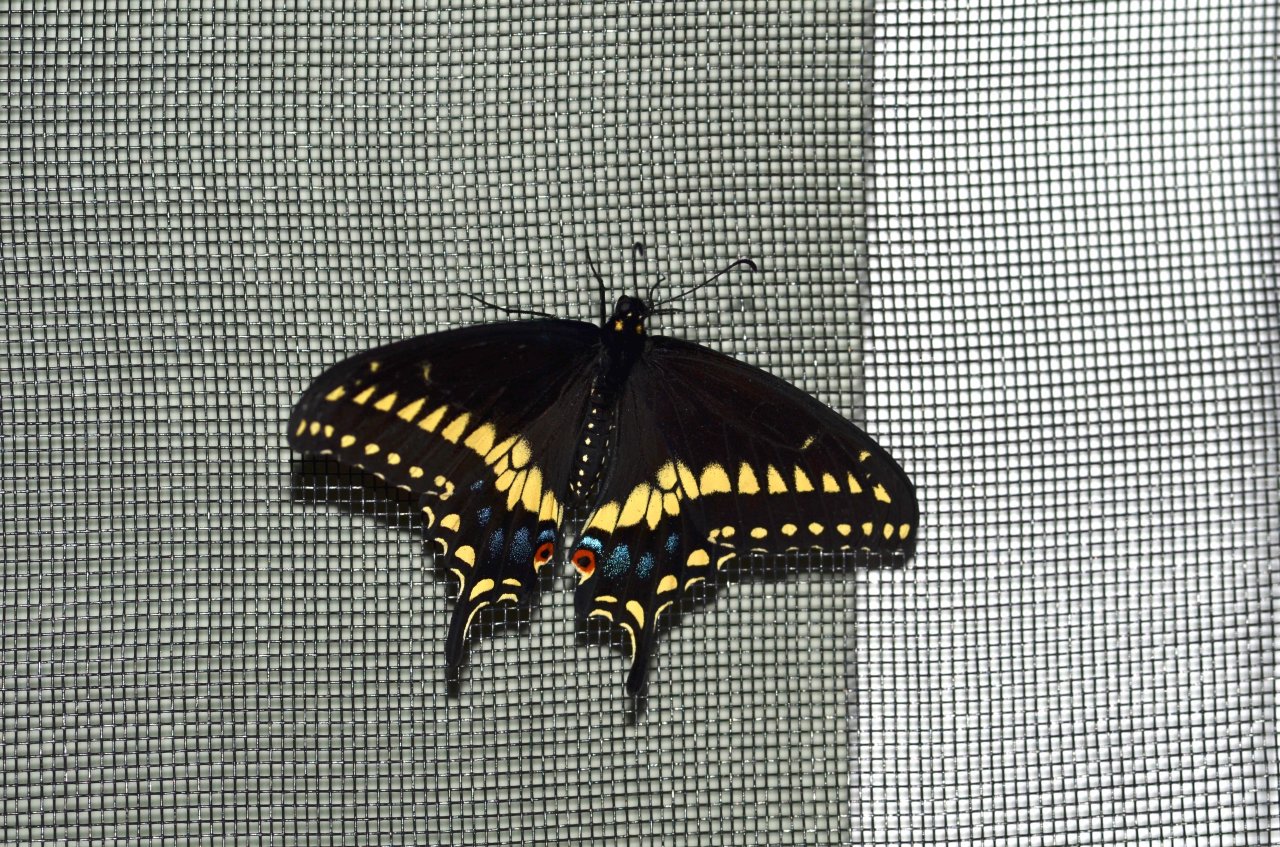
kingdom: Animalia
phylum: Arthropoda
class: Insecta
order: Lepidoptera
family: Papilionidae
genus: Papilio
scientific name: Papilio polyxenes
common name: Black Swallowtail
